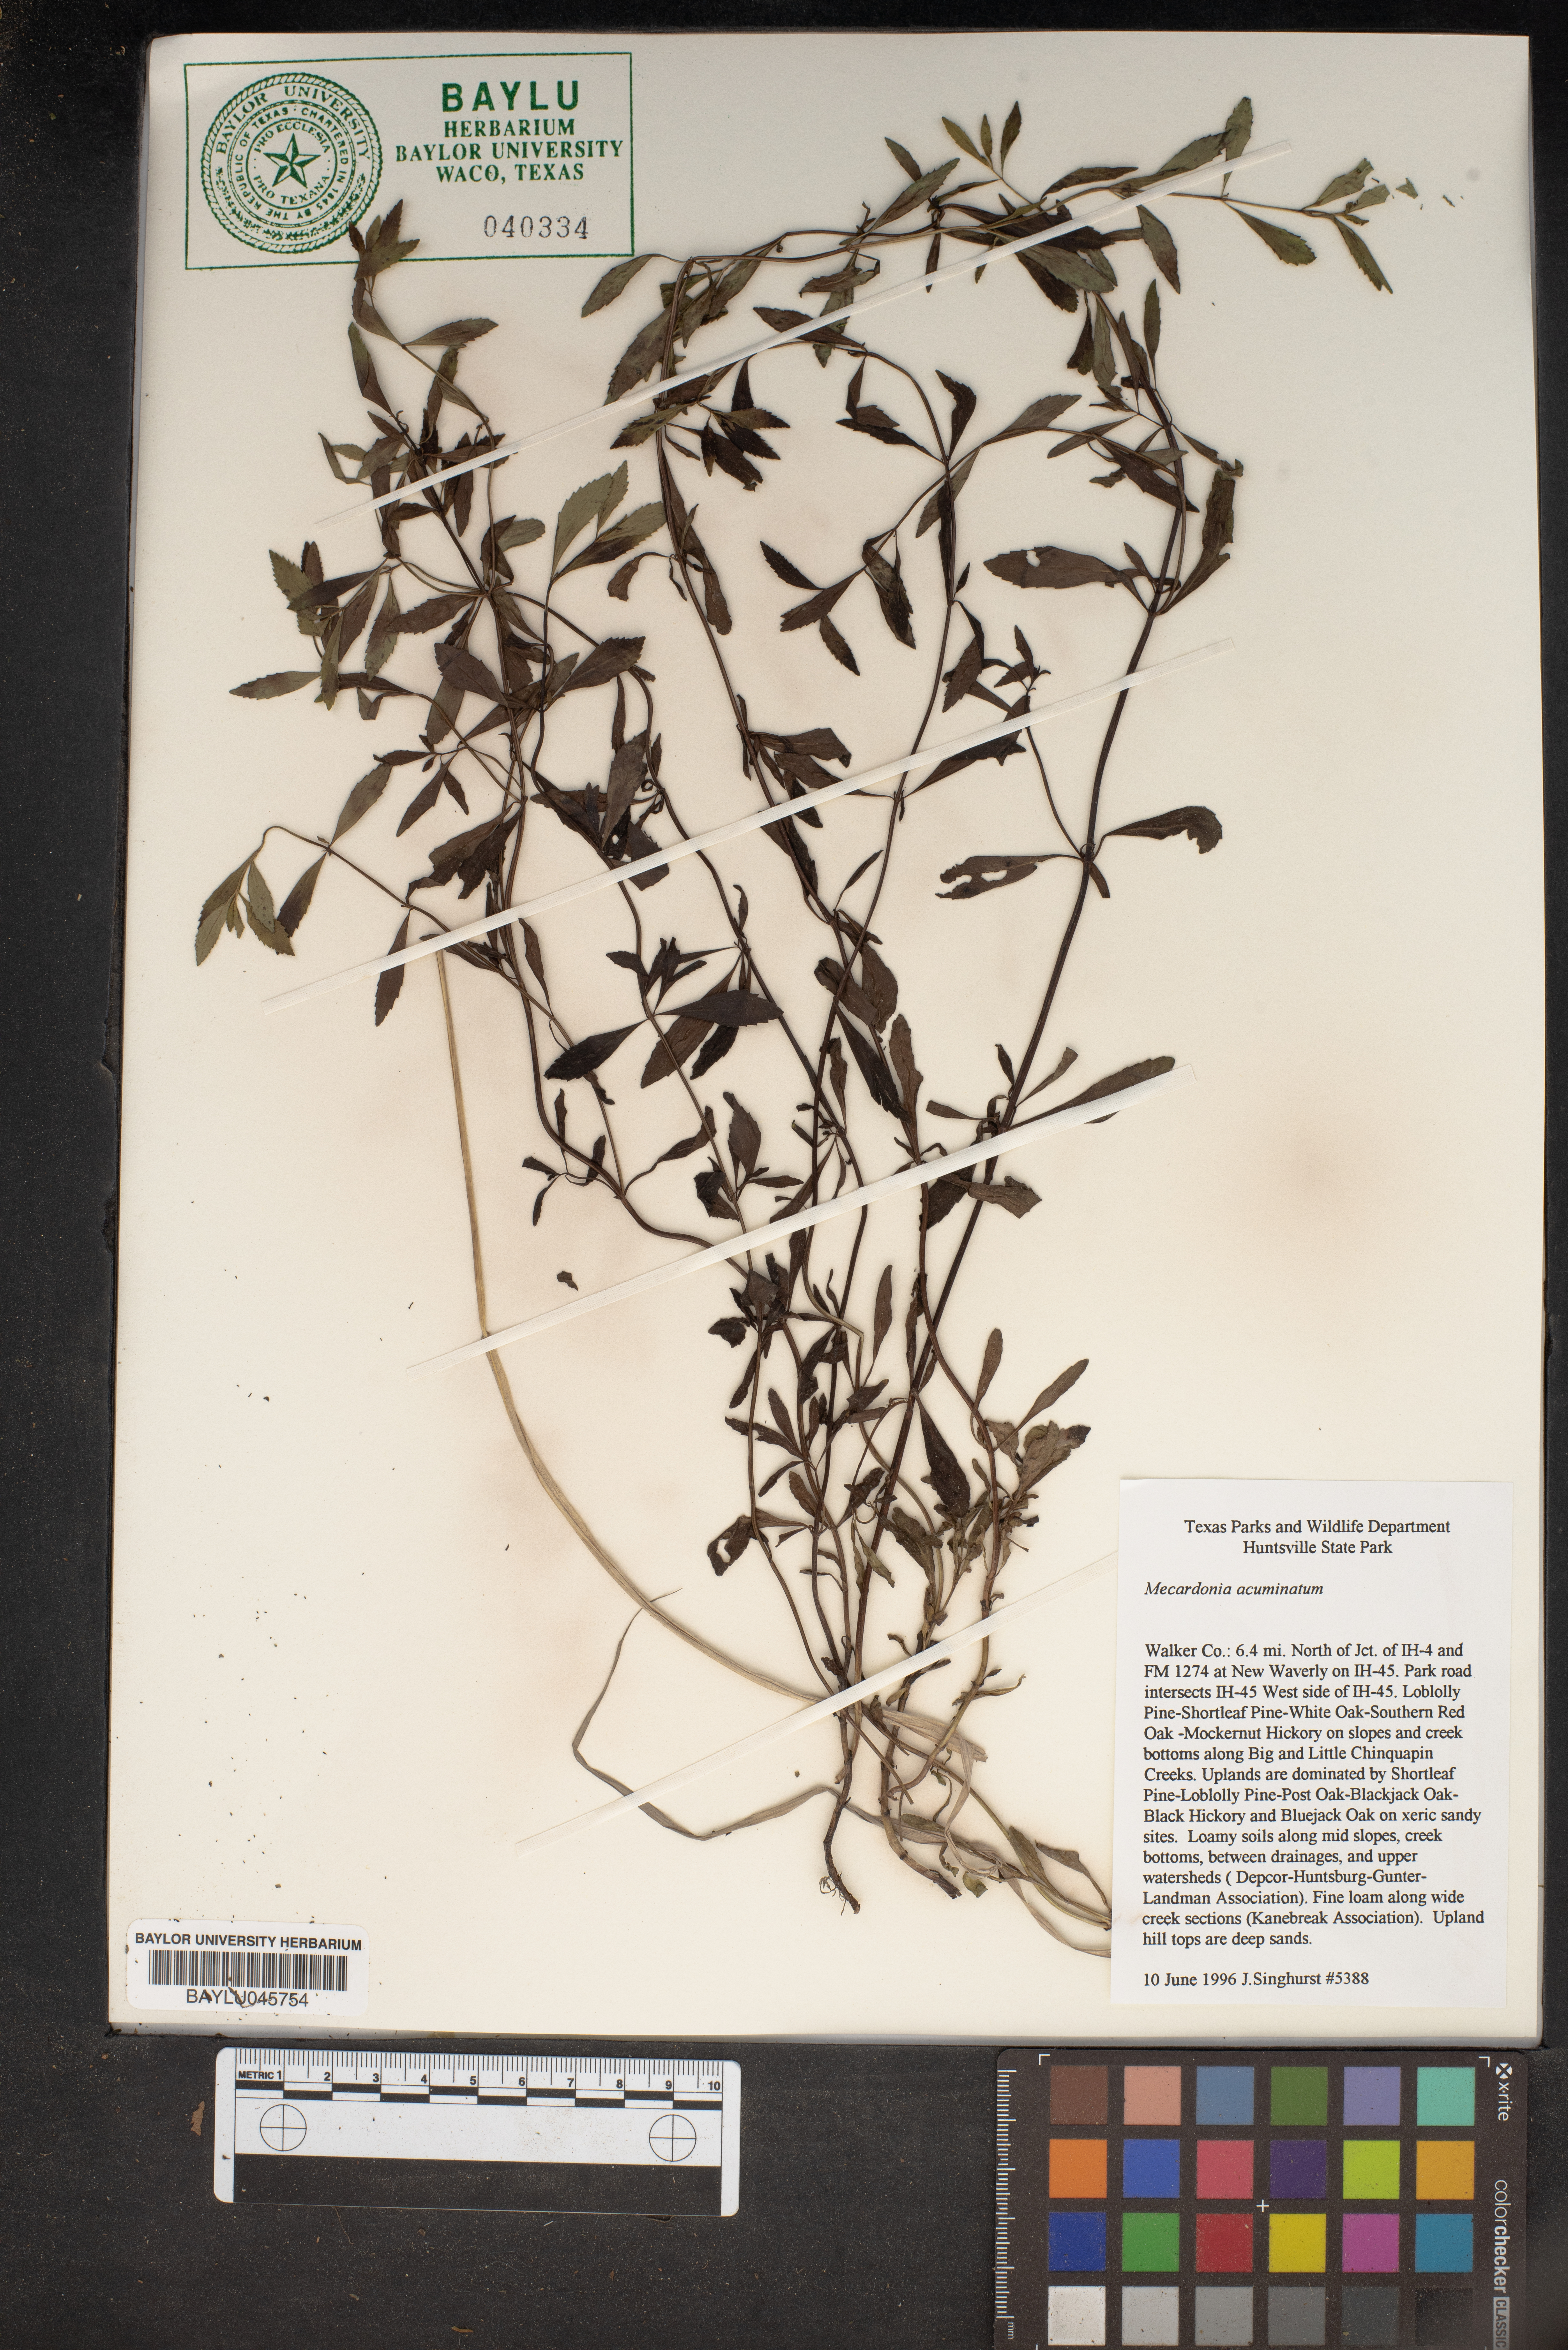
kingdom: Plantae
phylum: Tracheophyta
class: Magnoliopsida
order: Lamiales
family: Plantaginaceae
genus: Mecardonia
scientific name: Mecardonia acuminata
